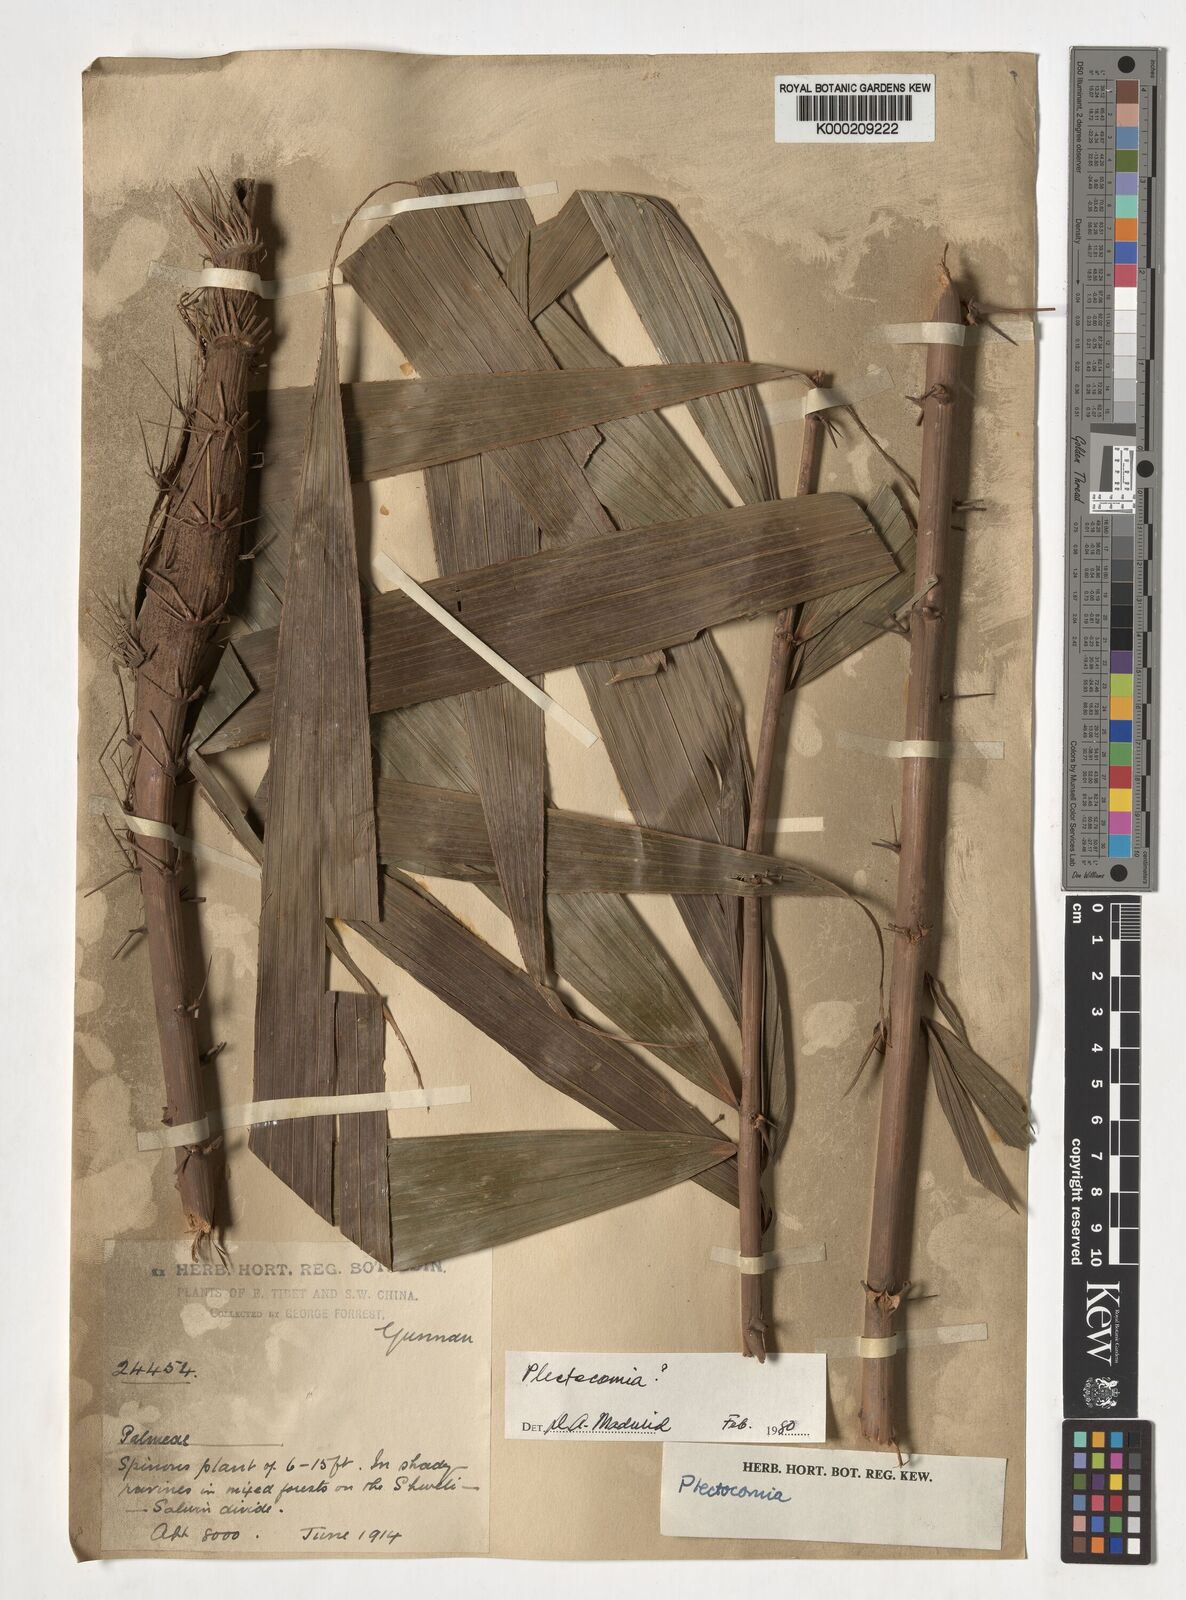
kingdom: Plantae
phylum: Tracheophyta
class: Liliopsida
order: Arecales
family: Arecaceae
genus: Plectocomia
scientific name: Plectocomia
